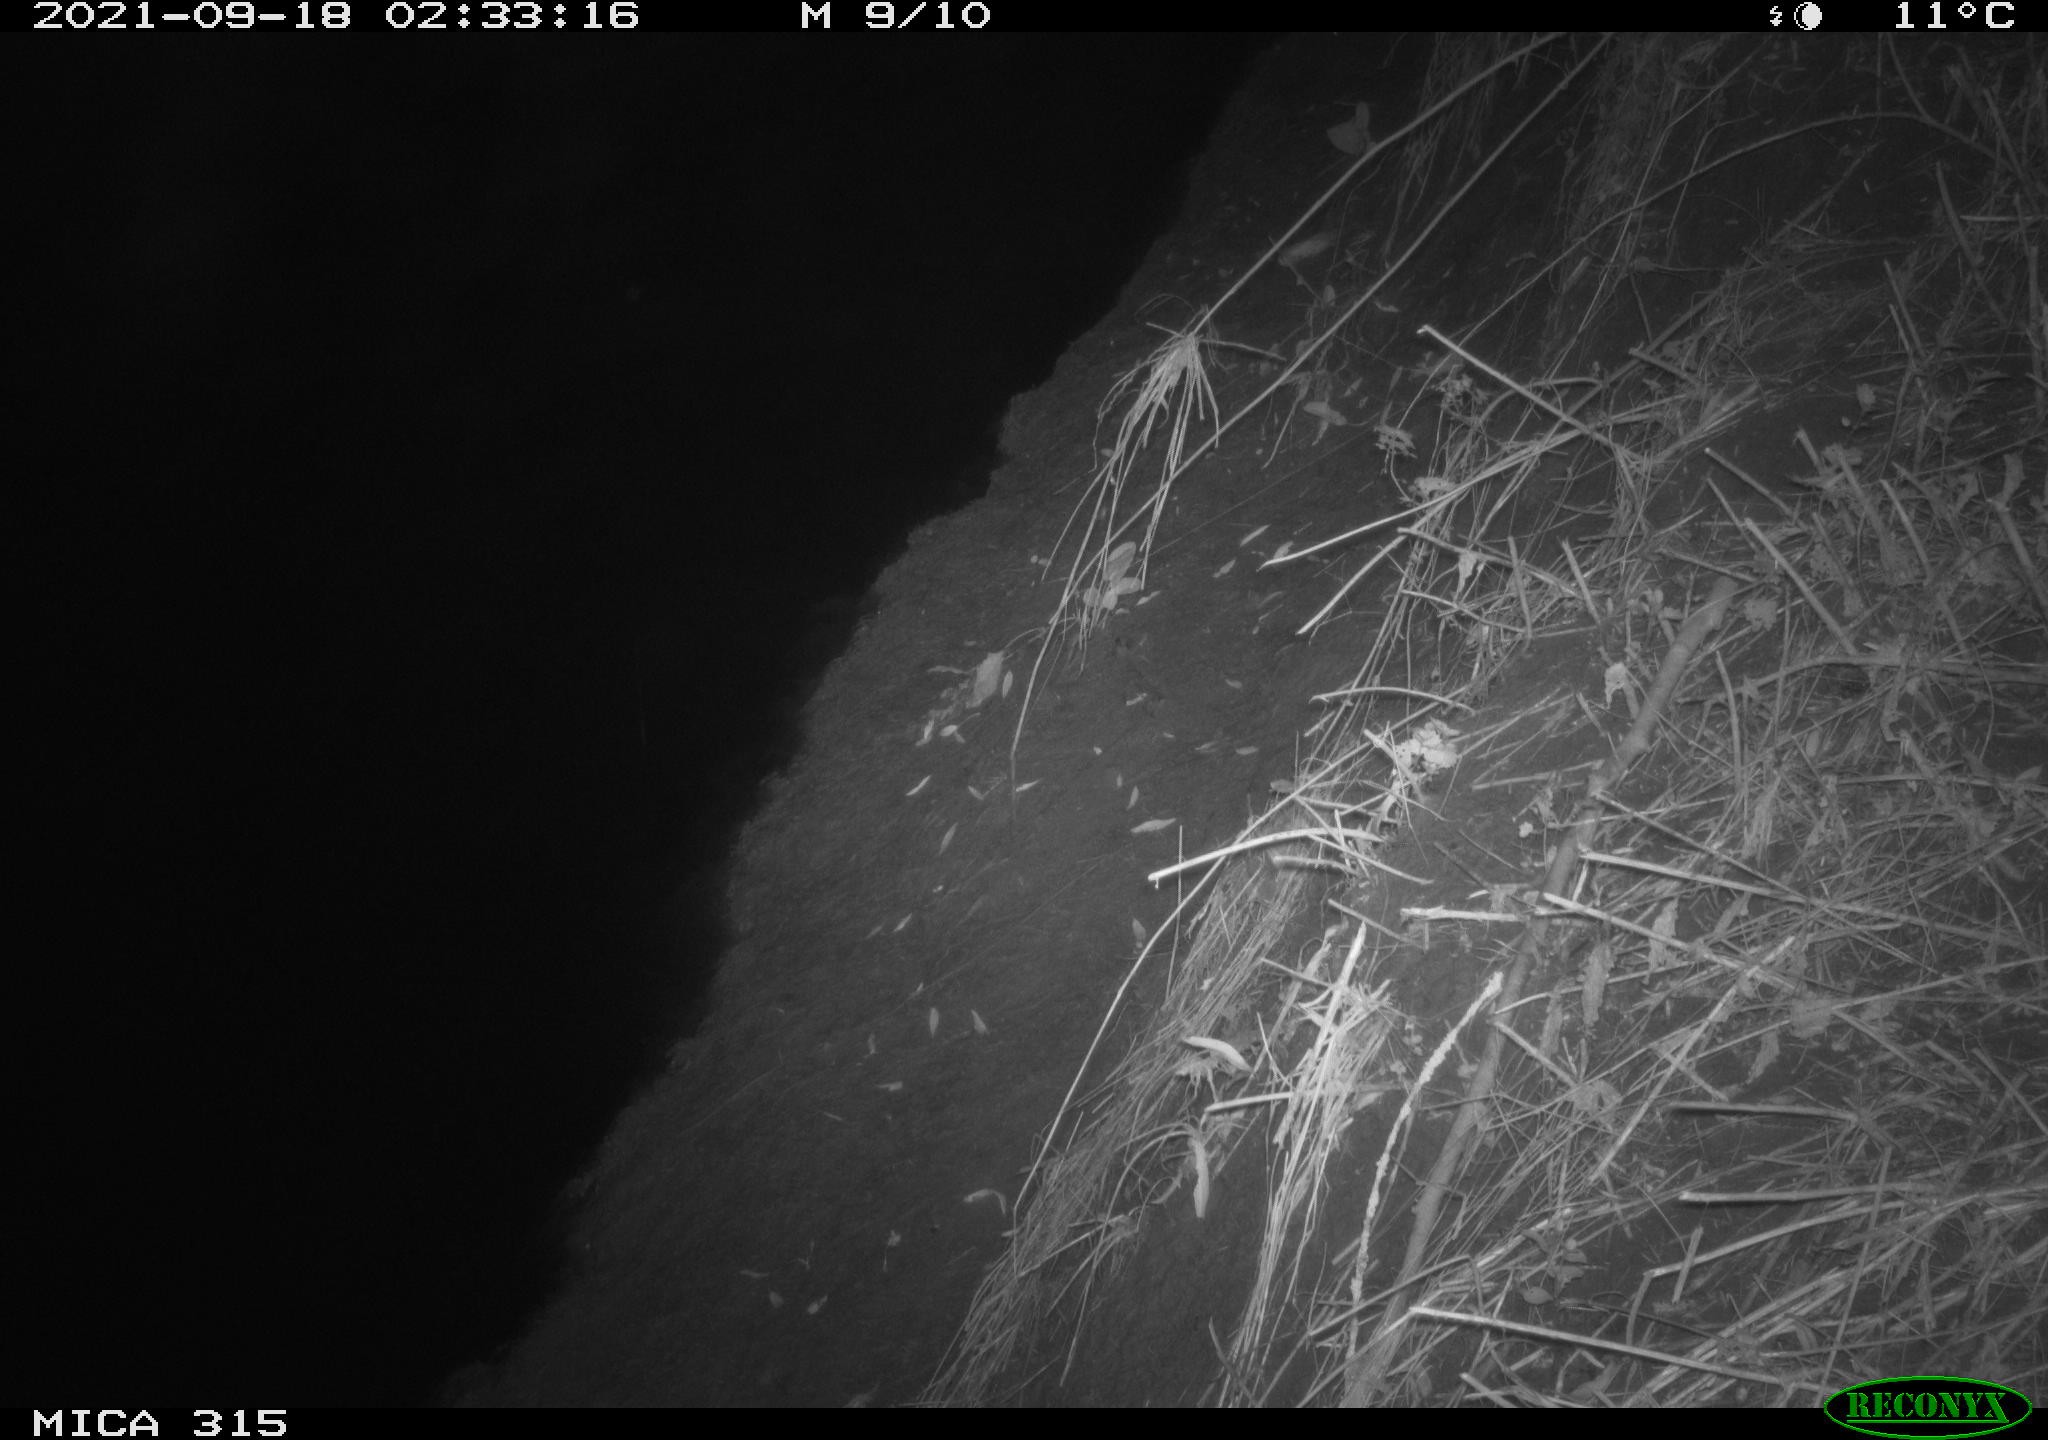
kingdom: Animalia
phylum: Chordata
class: Mammalia
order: Rodentia
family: Muridae
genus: Rattus
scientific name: Rattus norvegicus
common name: Brown rat
